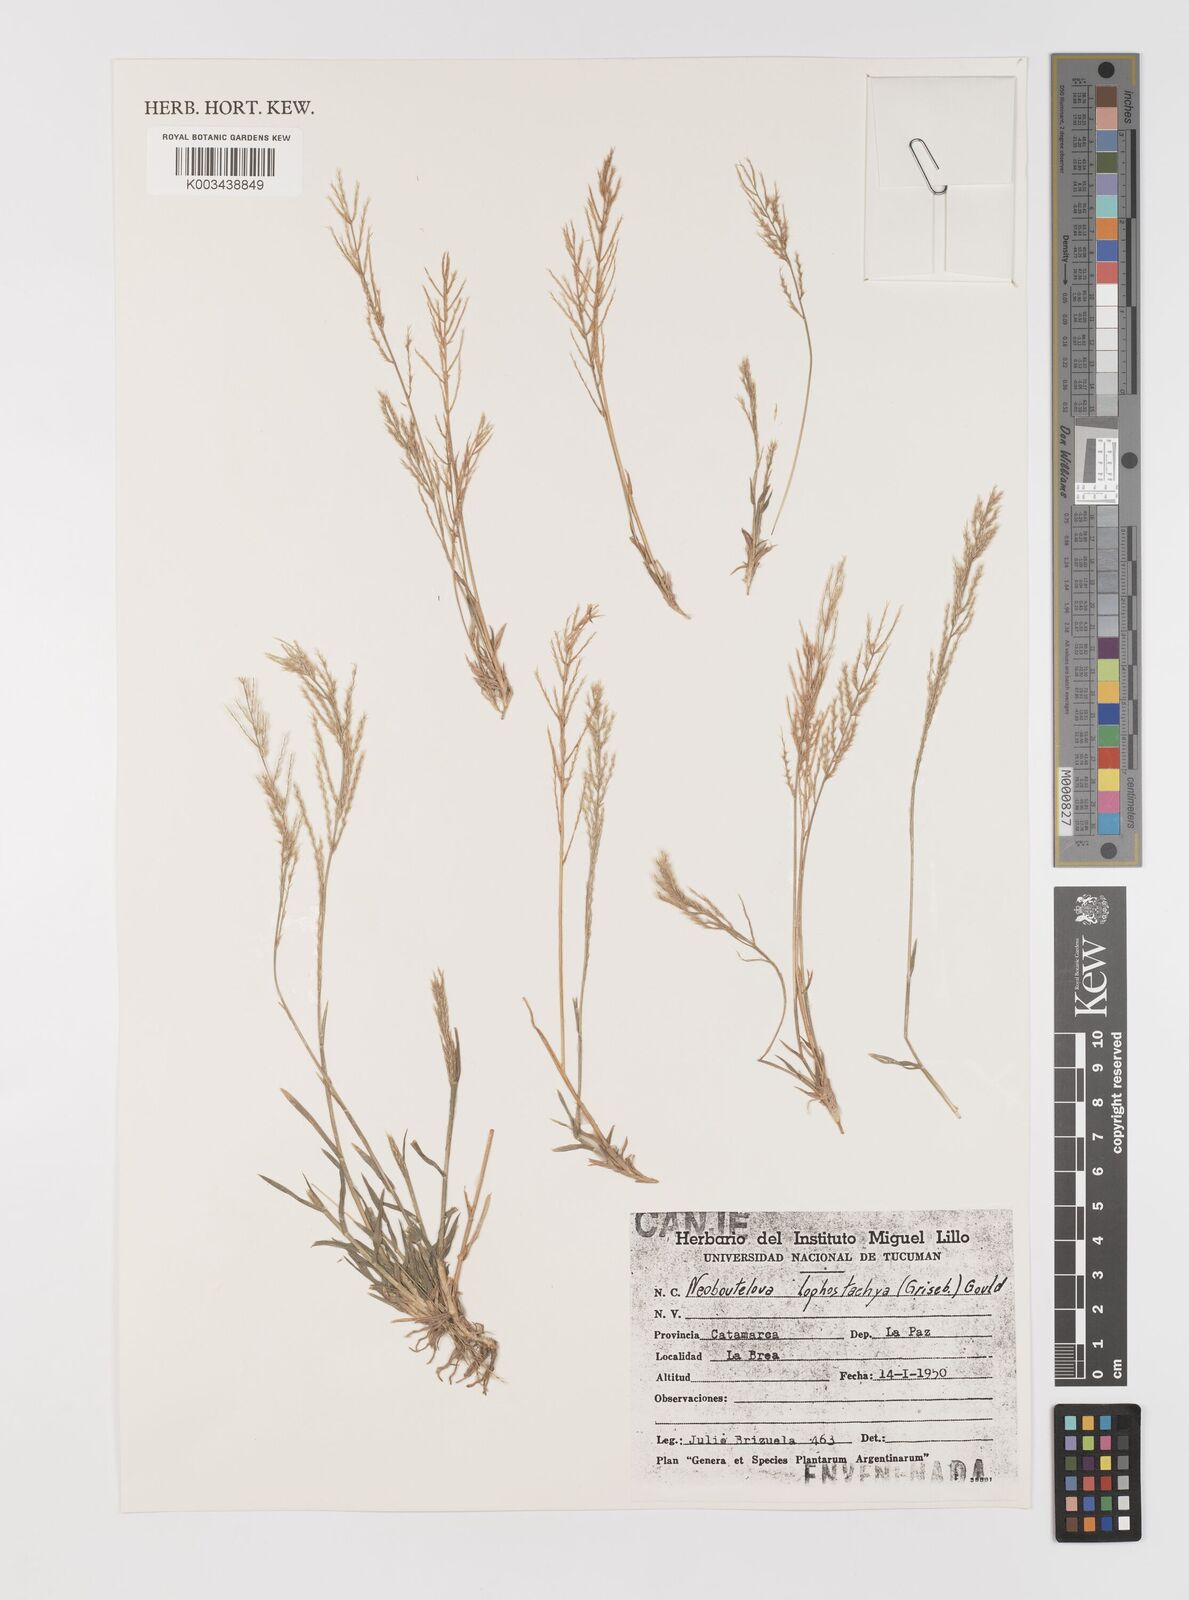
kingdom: Plantae
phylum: Tracheophyta
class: Liliopsida
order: Poales
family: Poaceae
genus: Neobouteloua
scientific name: Neobouteloua lophostachya
